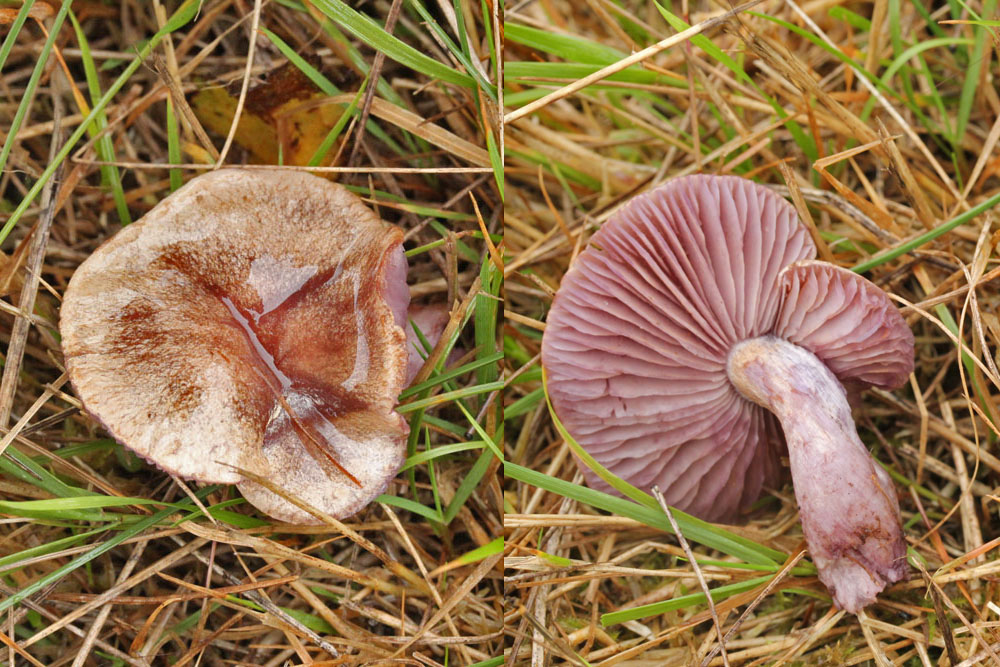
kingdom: Fungi
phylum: Basidiomycota
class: Agaricomycetes
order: Agaricales
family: Cortinariaceae
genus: Thaxterogaster
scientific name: Thaxterogaster subporphyropus
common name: ametyst-slørhat
